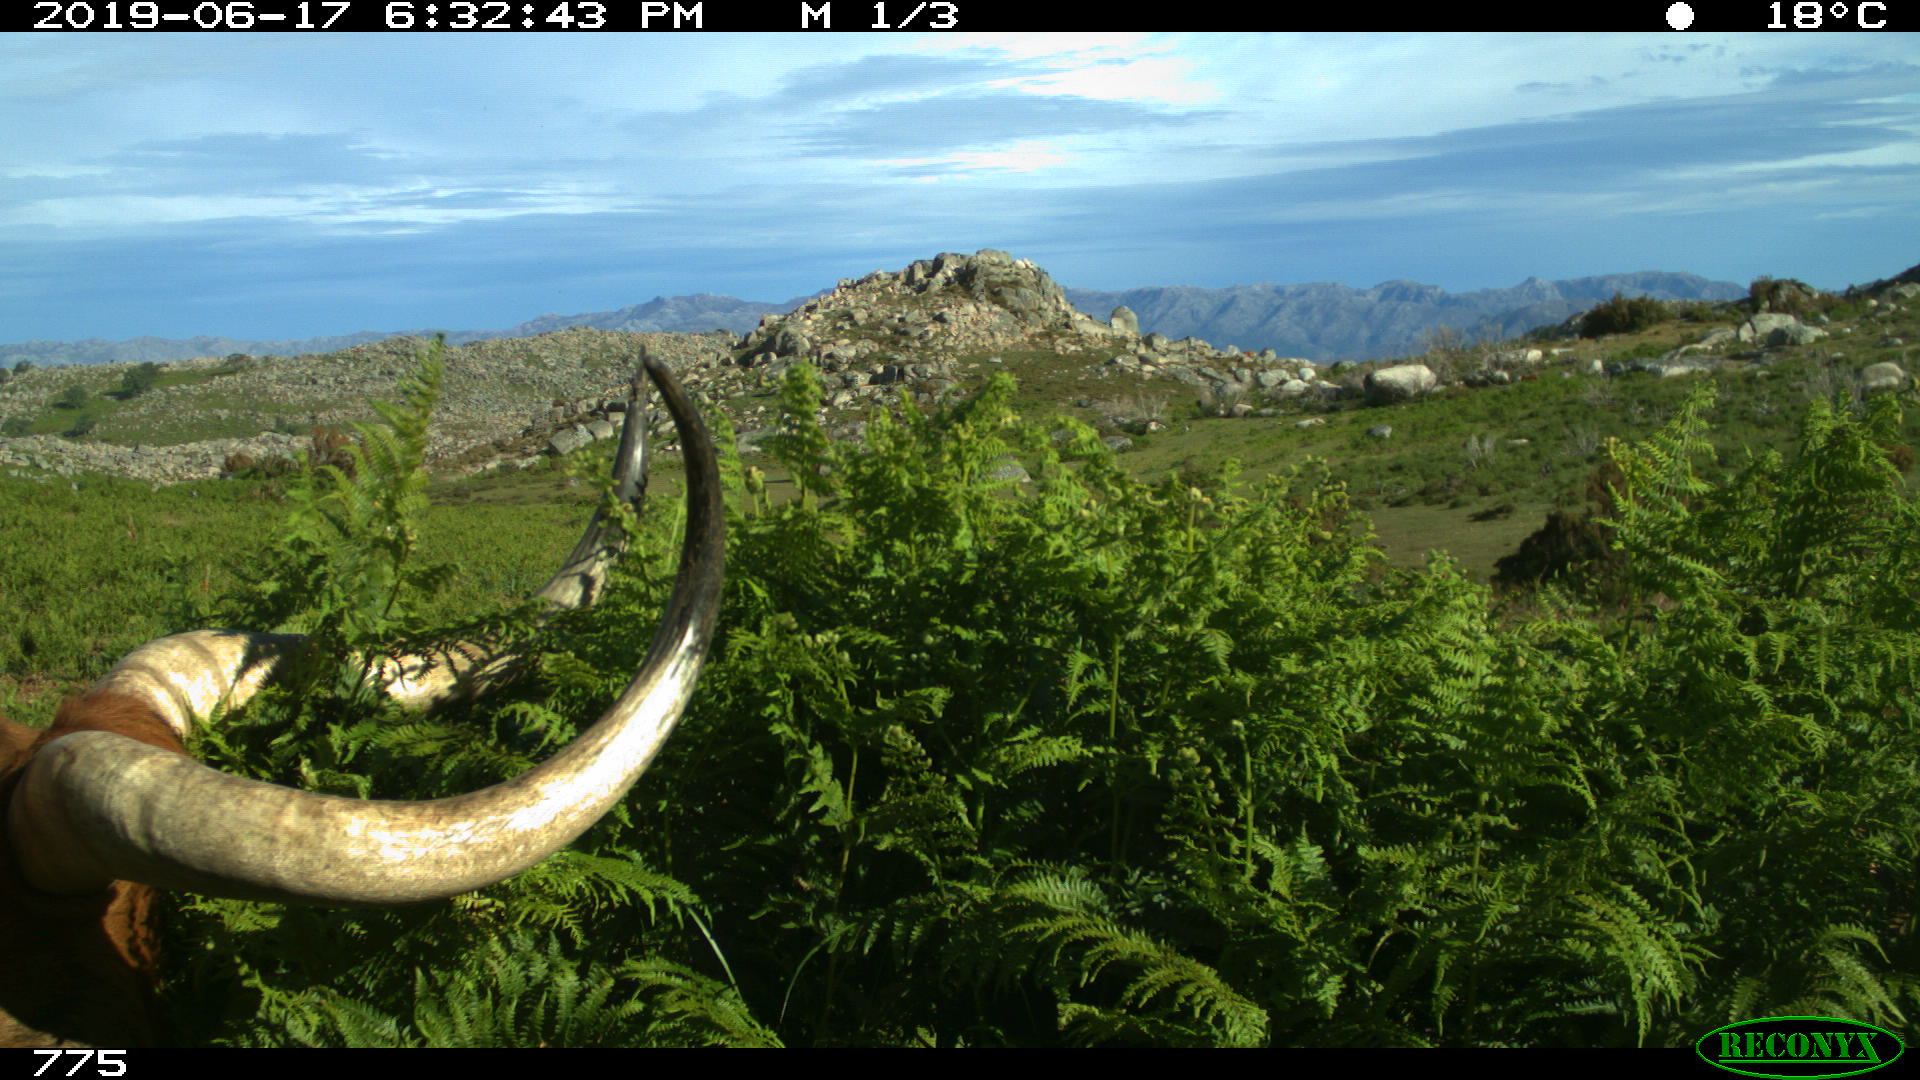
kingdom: Animalia
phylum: Chordata
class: Mammalia
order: Artiodactyla
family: Bovidae
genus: Bos
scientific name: Bos taurus
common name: Domesticated cattle
